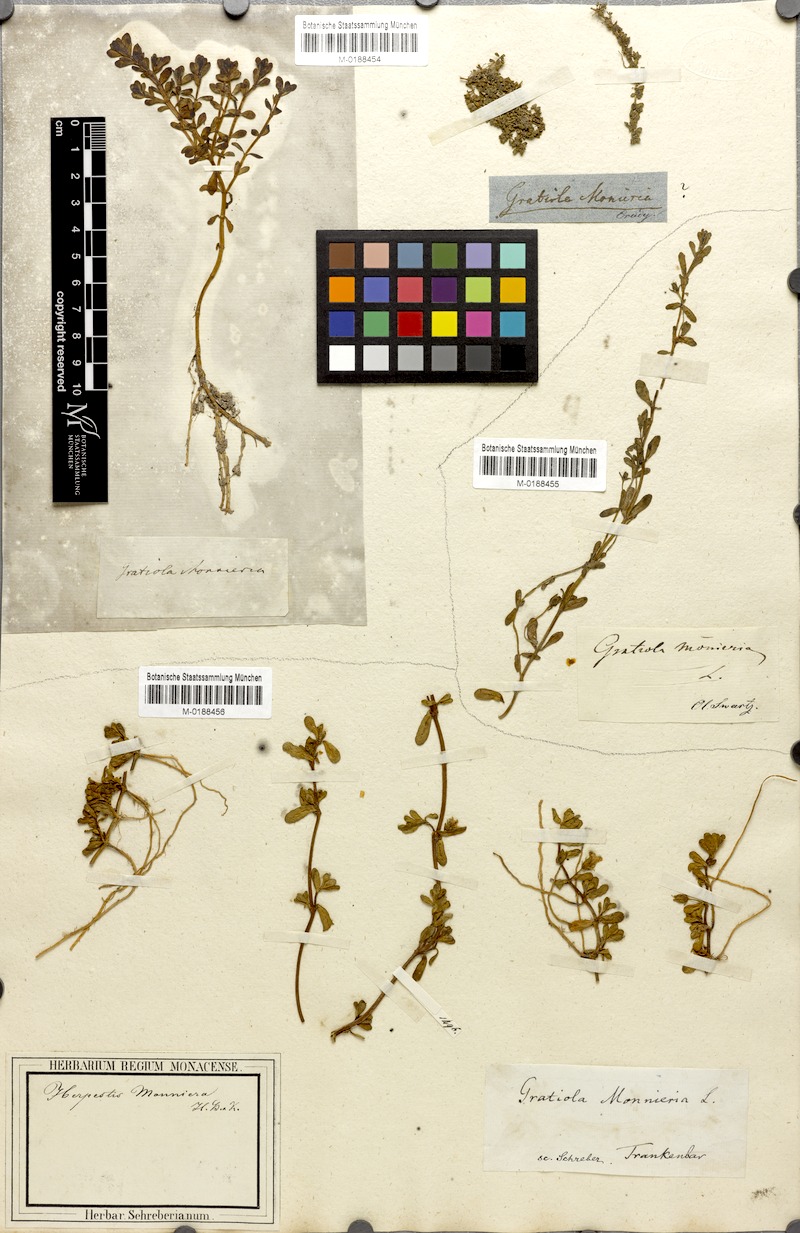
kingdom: Plantae
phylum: Tracheophyta
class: Magnoliopsida
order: Lamiales
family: Plantaginaceae
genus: Bacopa
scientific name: Bacopa monnieri
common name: Indian-pennywort
